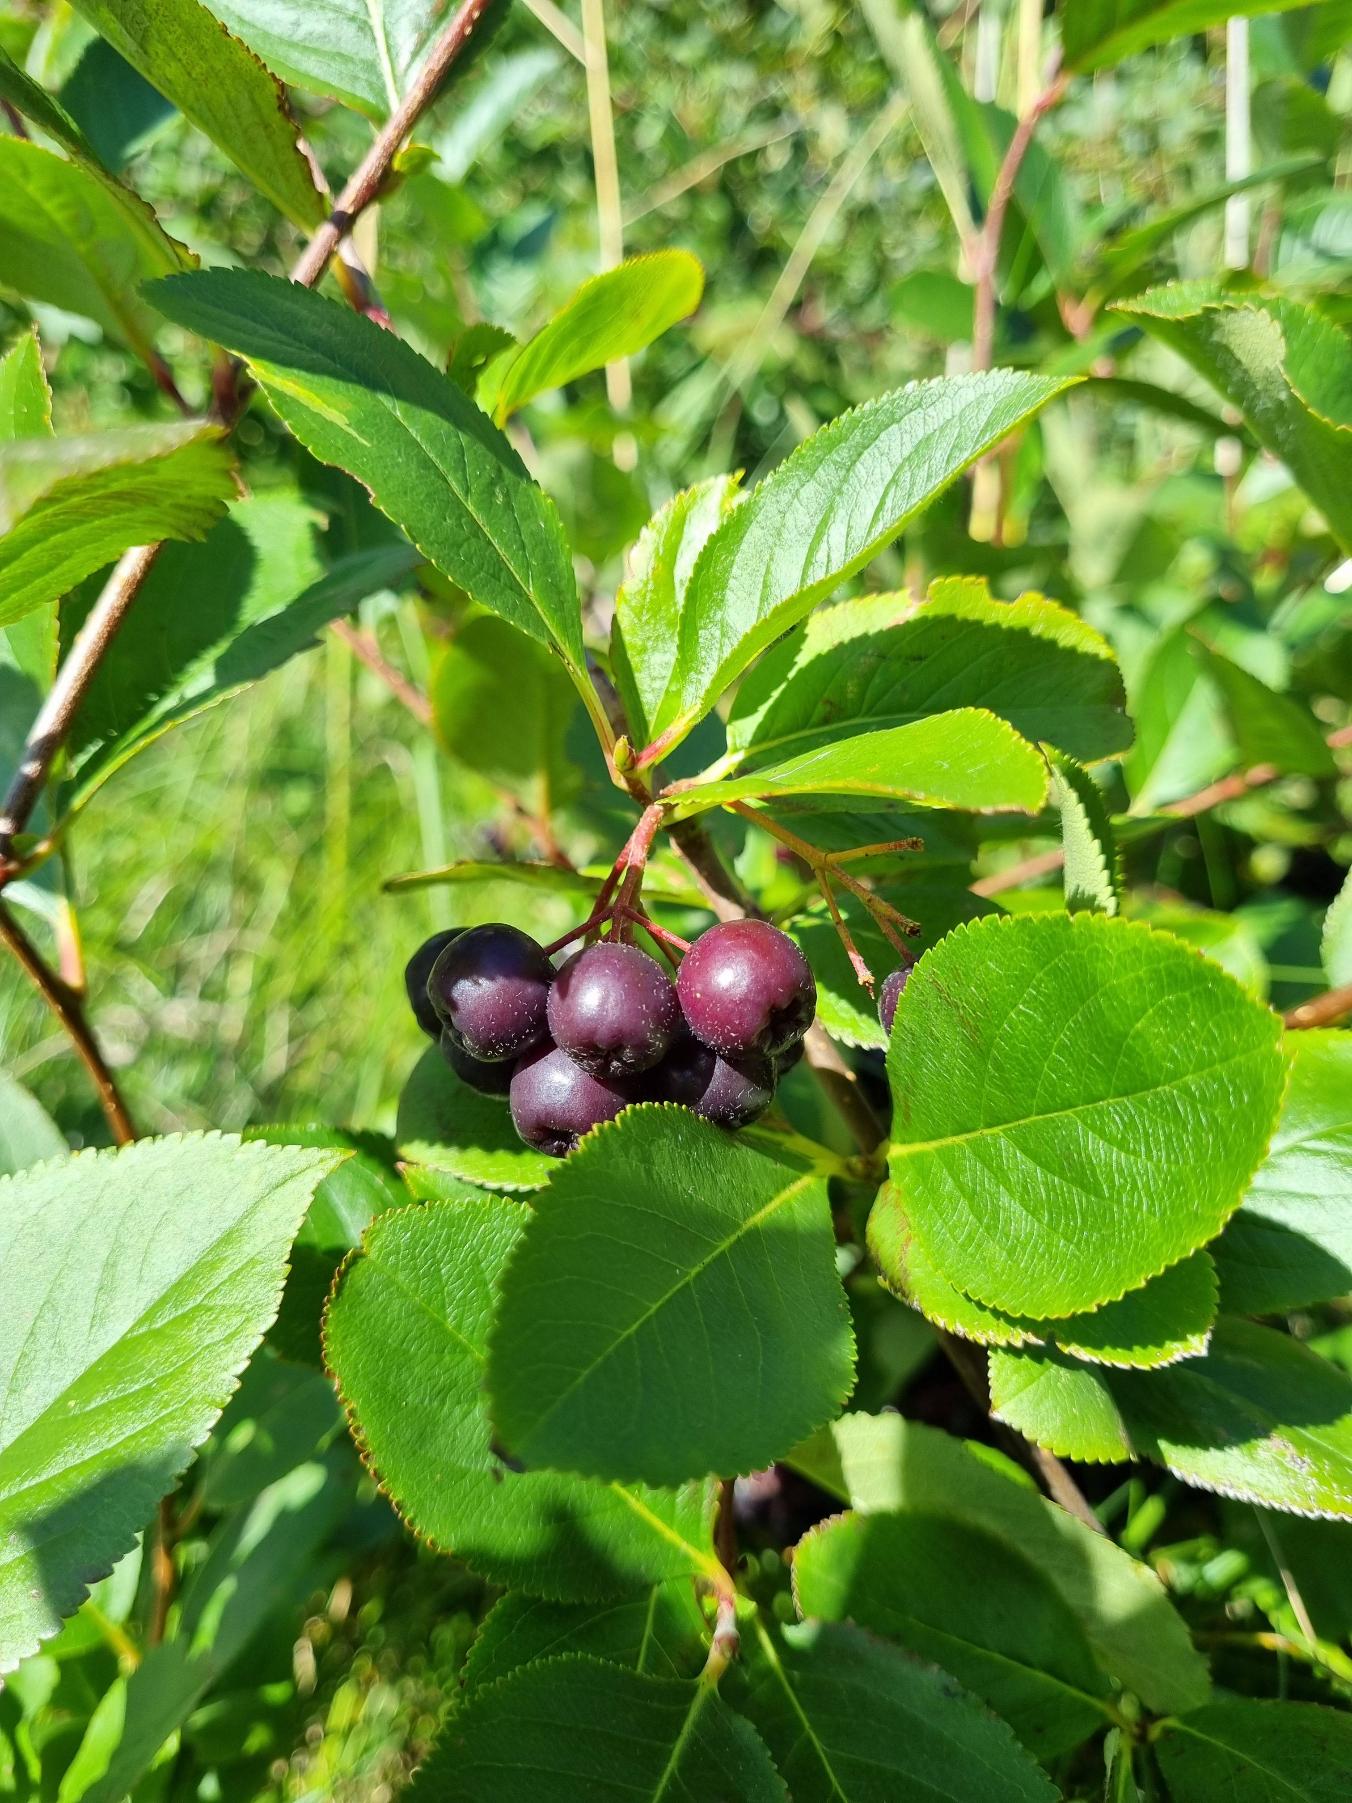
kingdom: Plantae
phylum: Tracheophyta
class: Magnoliopsida
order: Rosales
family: Rosaceae
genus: Aronia
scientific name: Aronia prunifolia
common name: Blommebladet surbær
